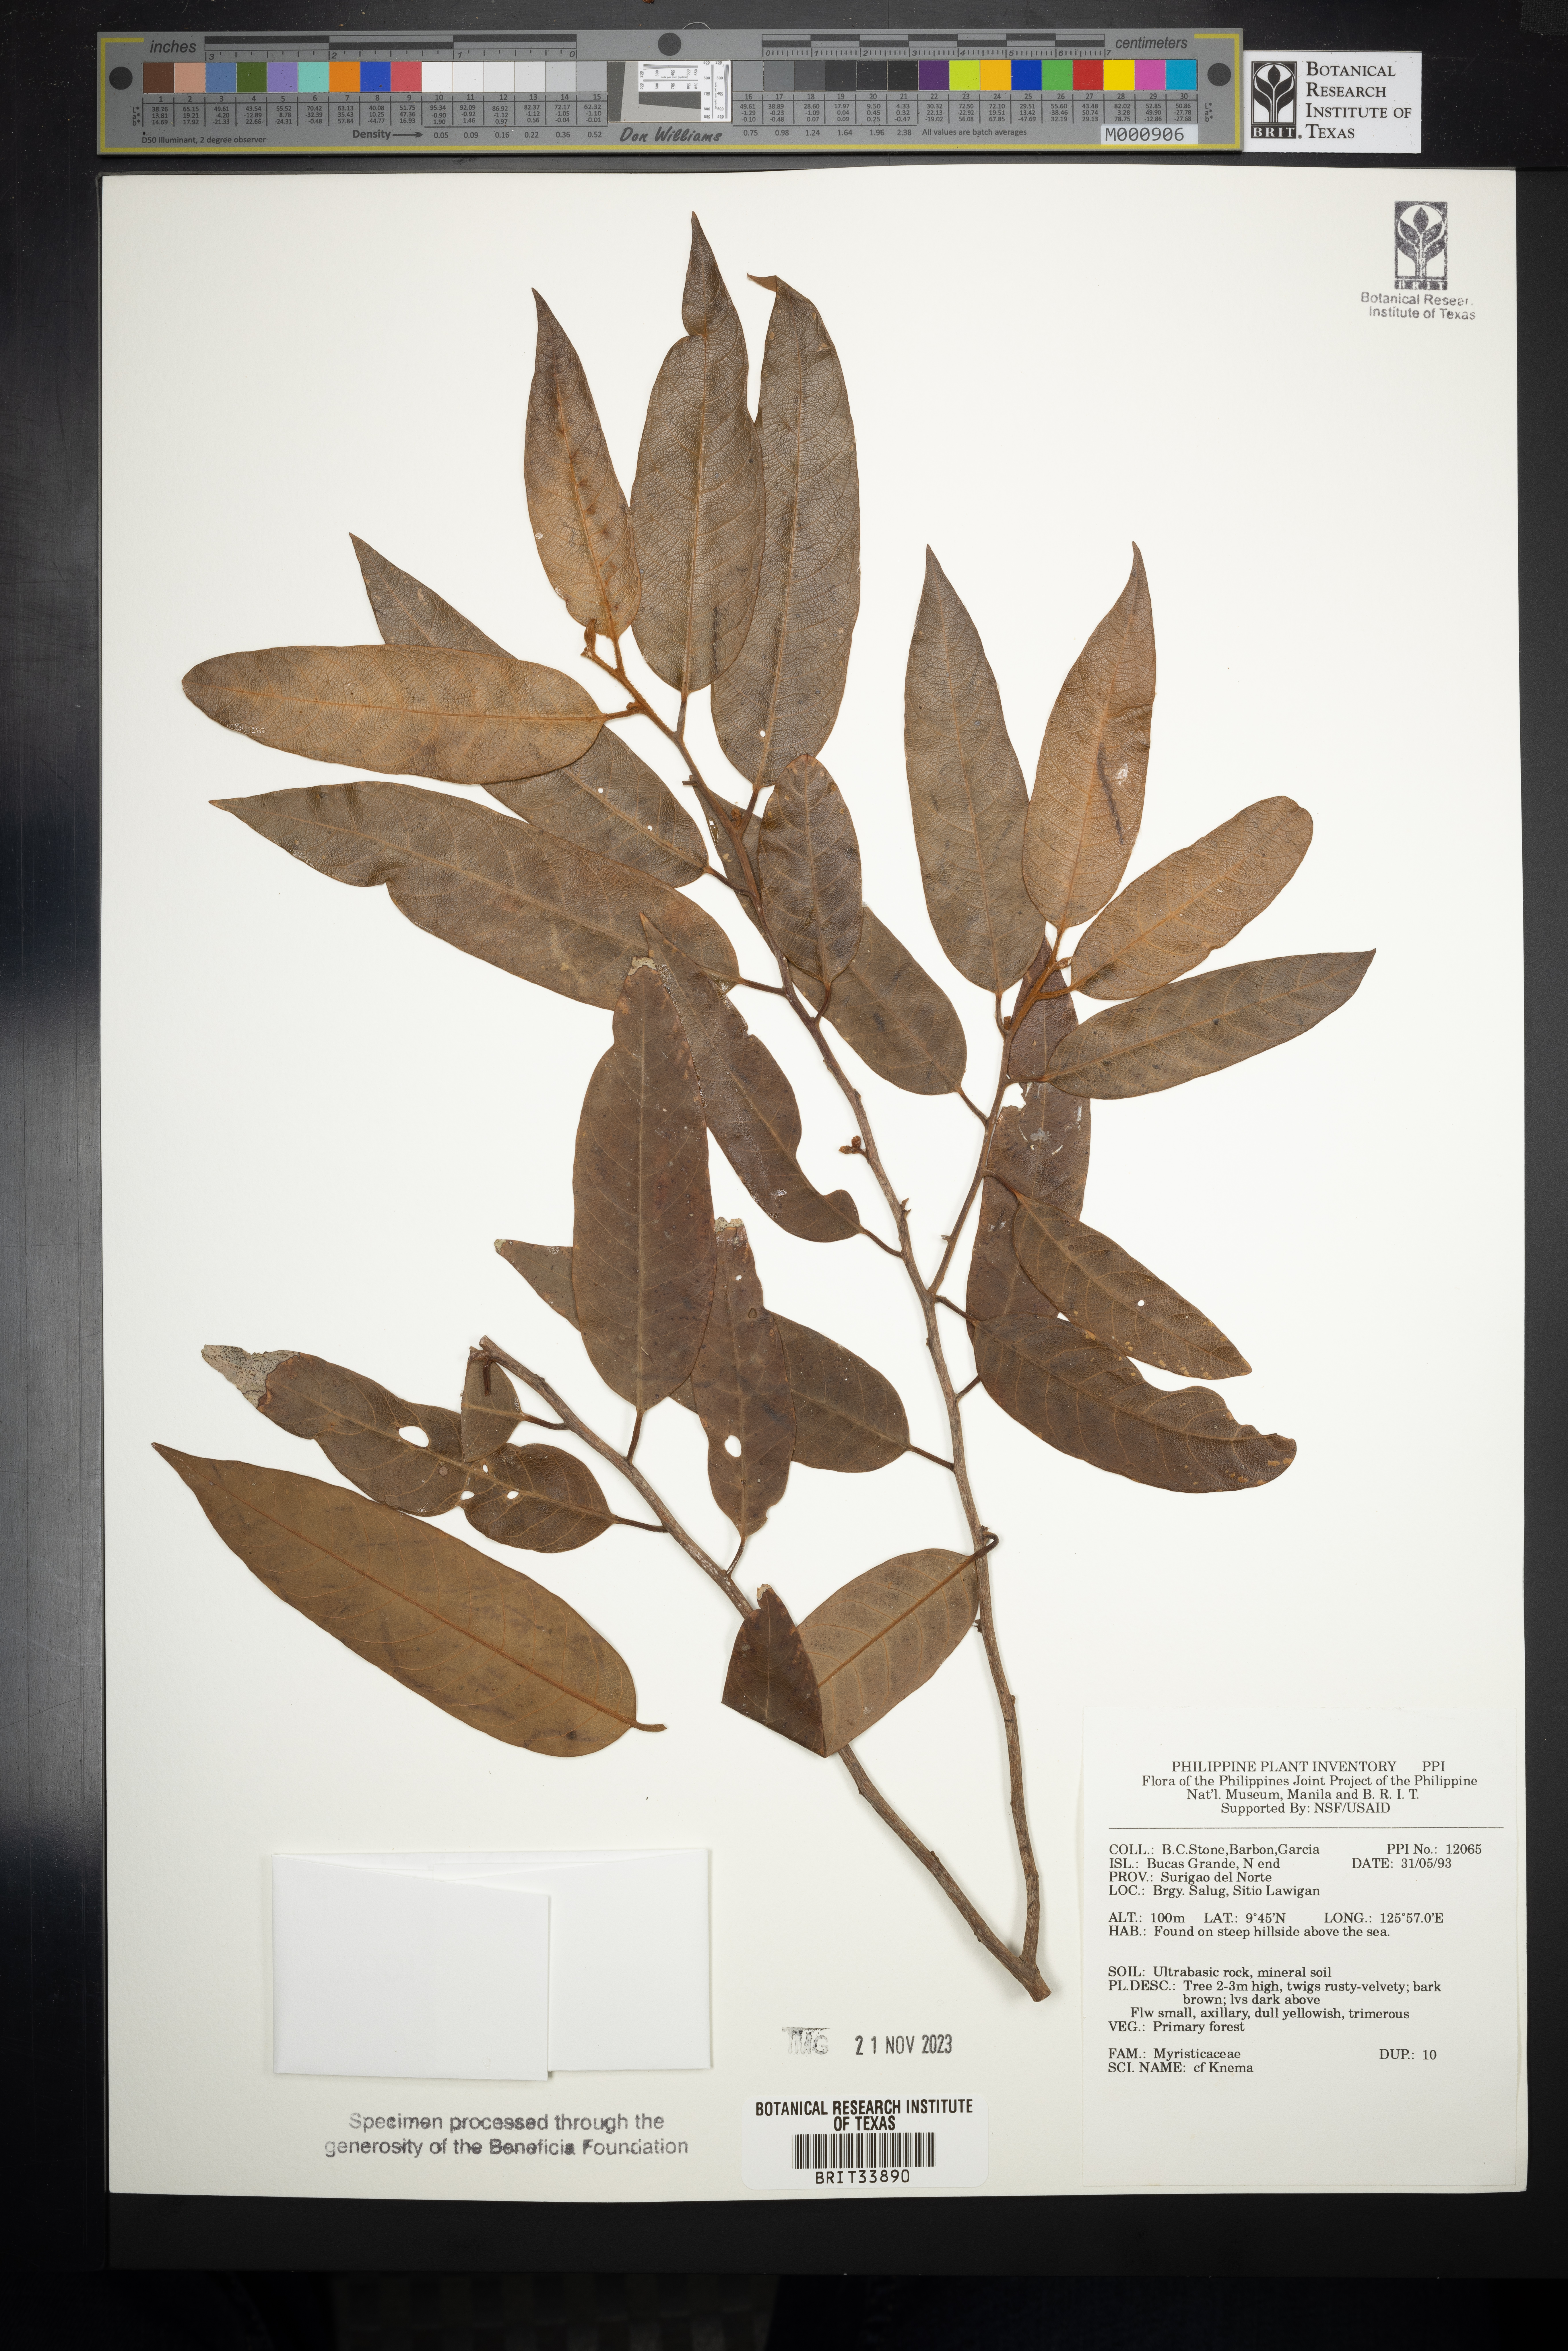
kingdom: Plantae
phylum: Tracheophyta
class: Magnoliopsida
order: Magnoliales
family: Myristicaceae
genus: Knema
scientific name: Knema
